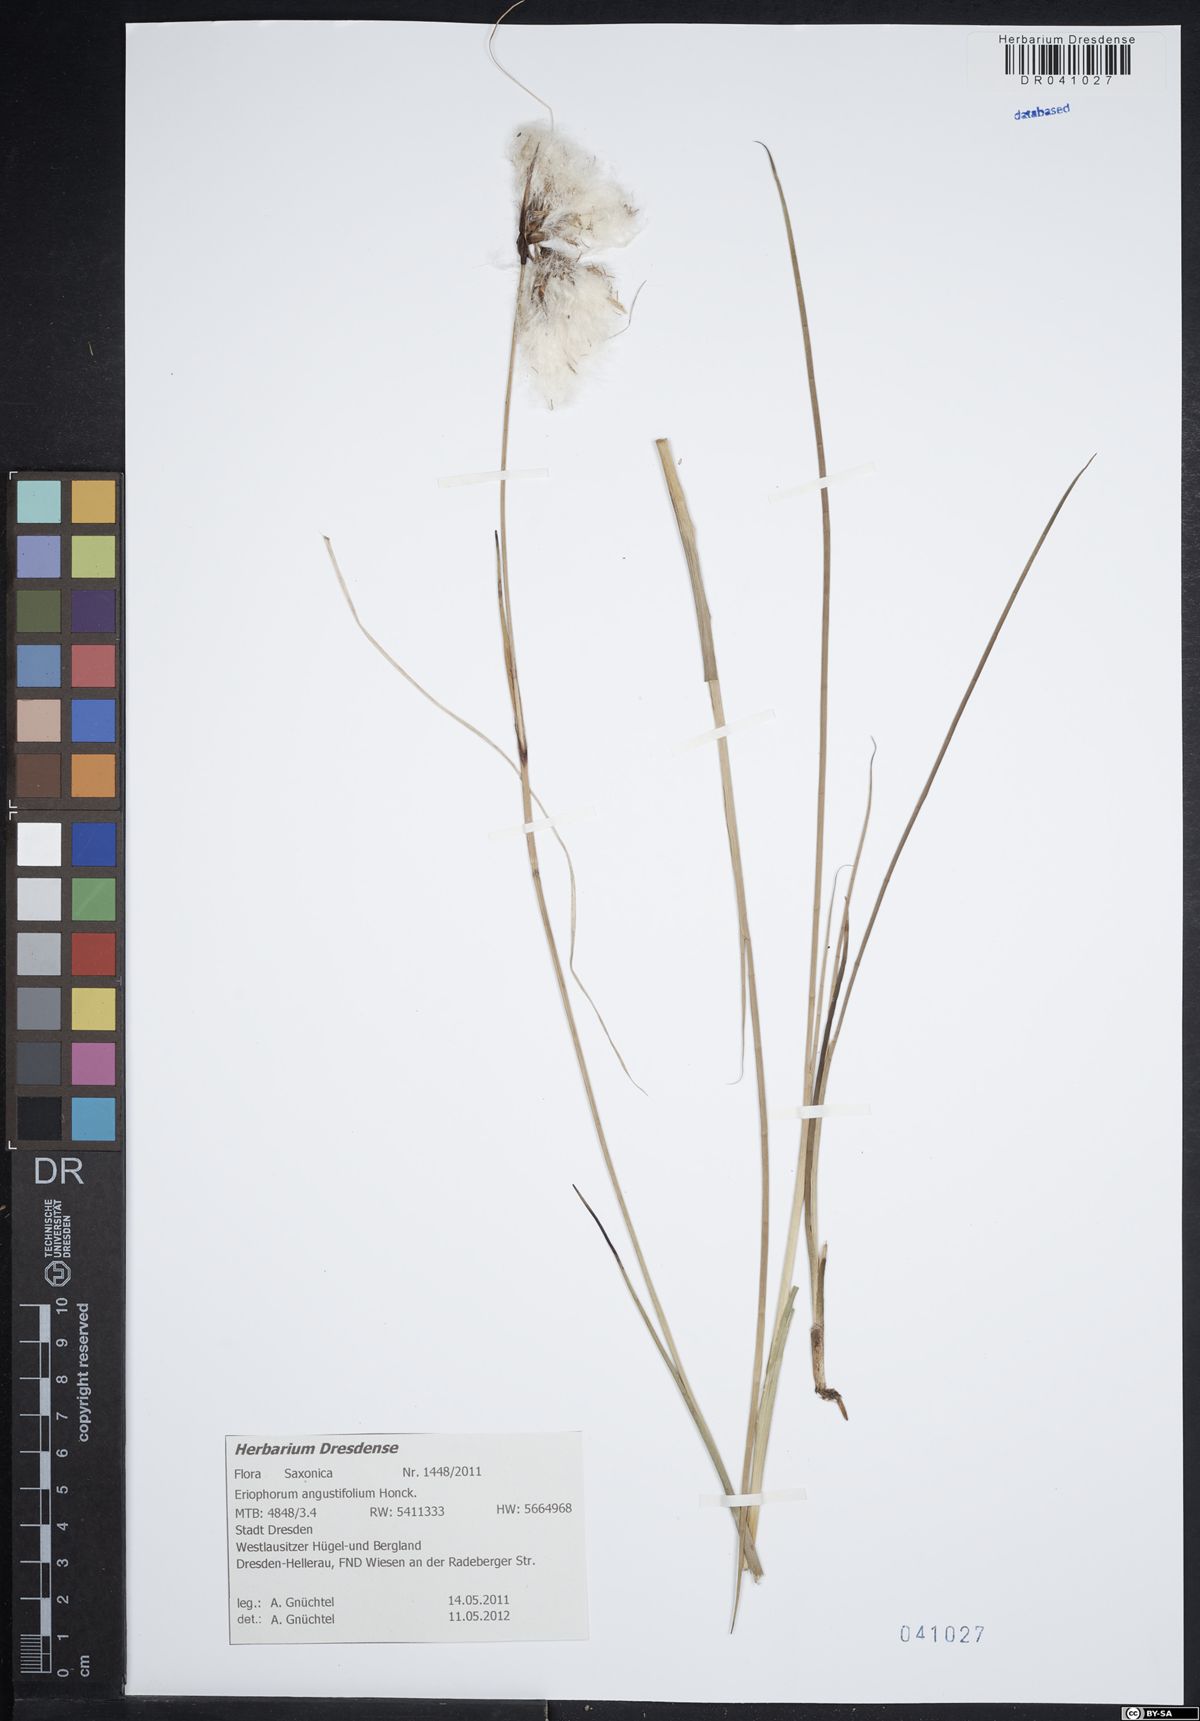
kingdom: Plantae
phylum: Tracheophyta
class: Liliopsida
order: Poales
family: Cyperaceae
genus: Eriophorum
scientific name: Eriophorum angustifolium
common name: Common cottongrass
